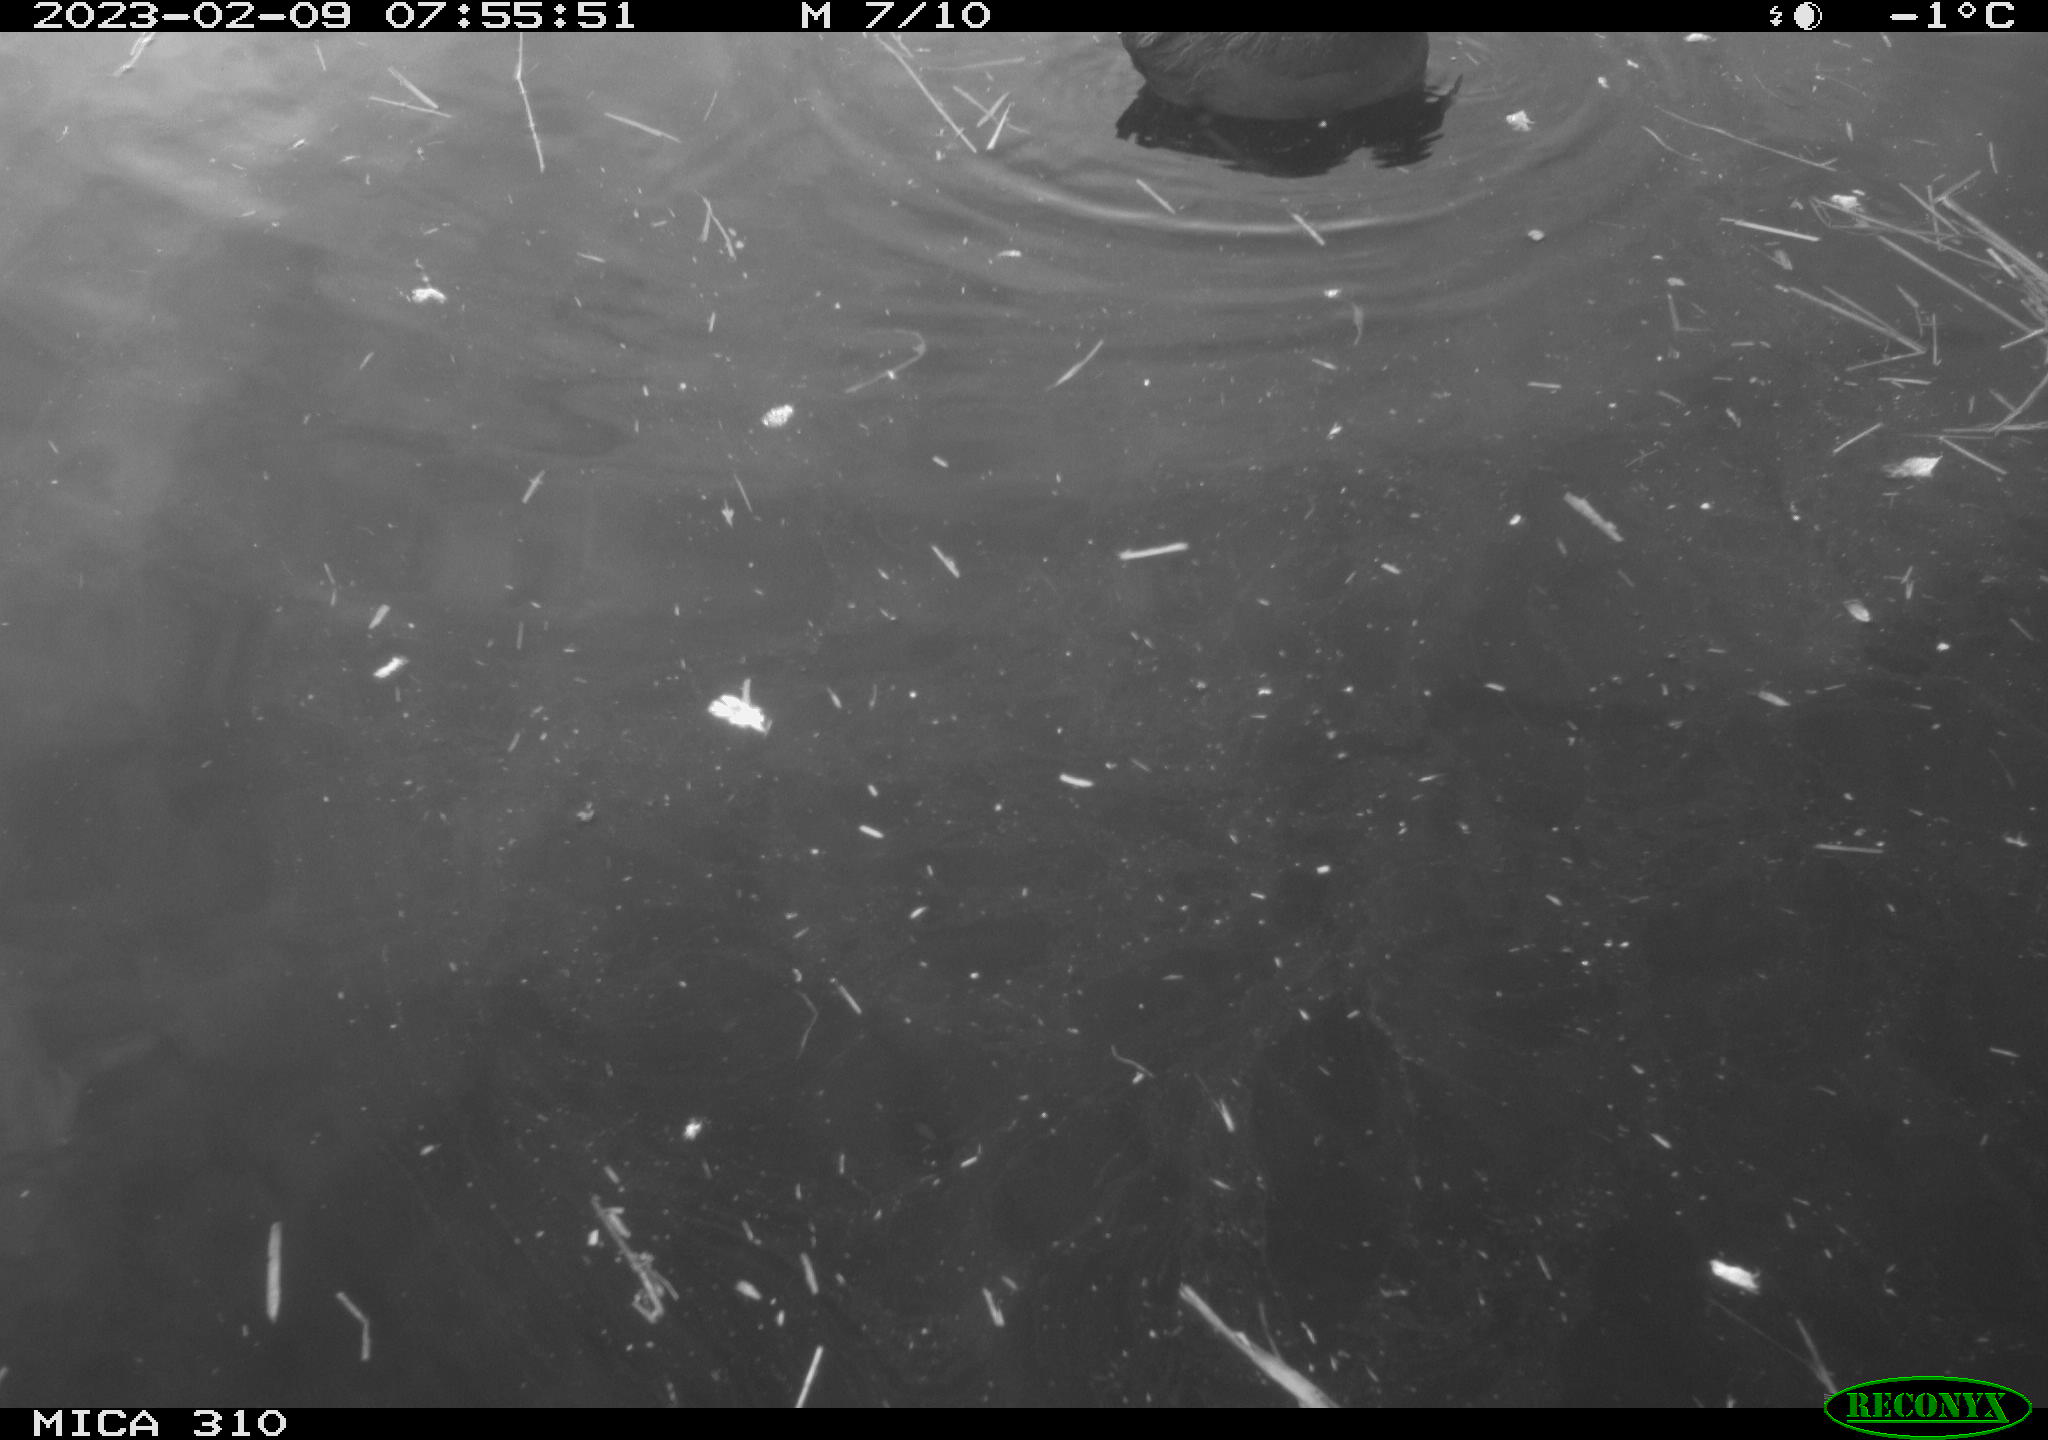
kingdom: Animalia
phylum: Chordata
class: Aves
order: Gruiformes
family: Rallidae
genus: Fulica
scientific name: Fulica atra
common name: Eurasian coot
